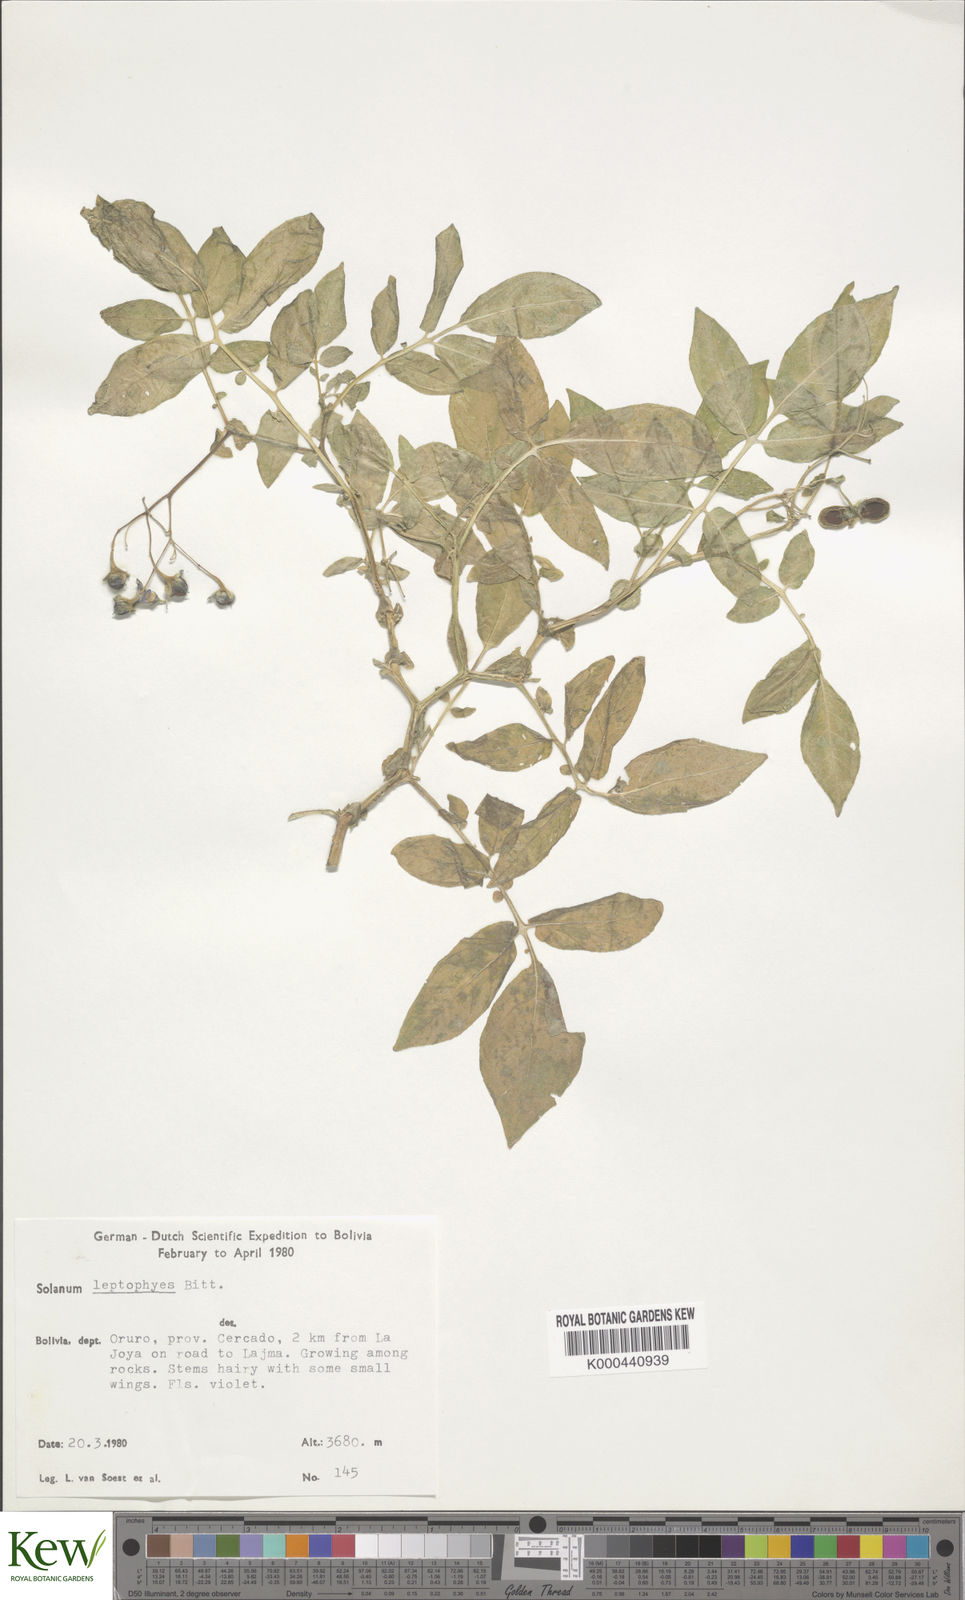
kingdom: Plantae
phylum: Tracheophyta
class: Magnoliopsida
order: Solanales
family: Solanaceae
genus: Solanum
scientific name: Solanum brevicaule
